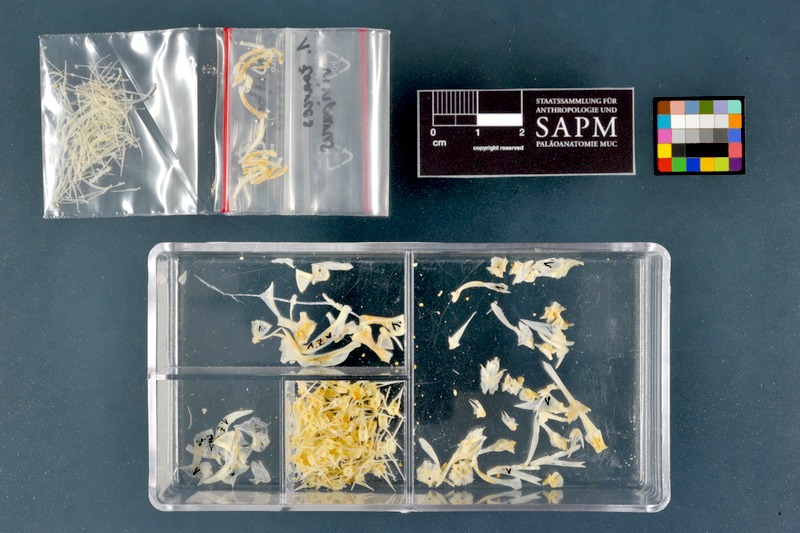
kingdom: Animalia
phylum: Chordata
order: Perciformes
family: Zoarcidae
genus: Zoarces
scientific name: Zoarces viviparus
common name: Viviparous blenny
